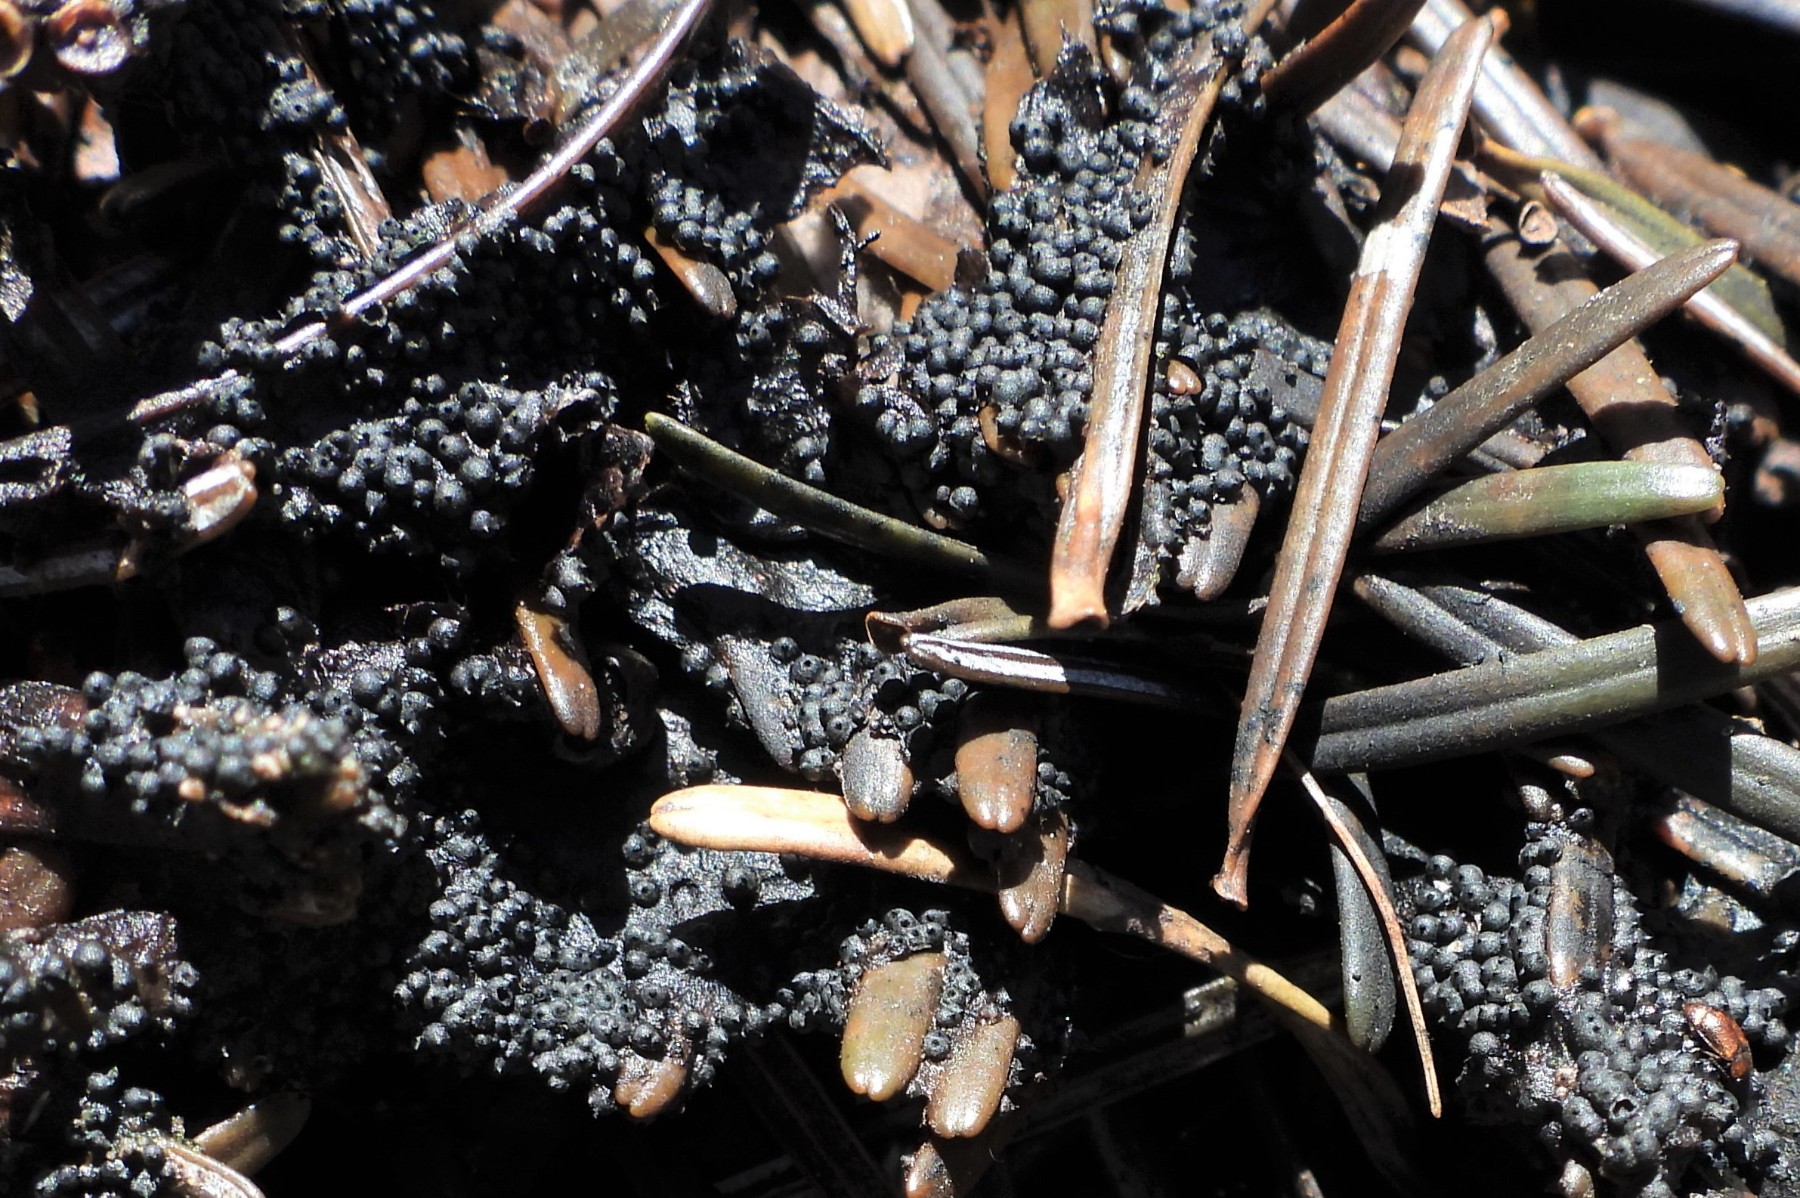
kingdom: Fungi
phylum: Ascomycota
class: Sordariomycetes
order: Xylariales
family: Xylariaceae
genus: Rosellinia
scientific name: Rosellinia
